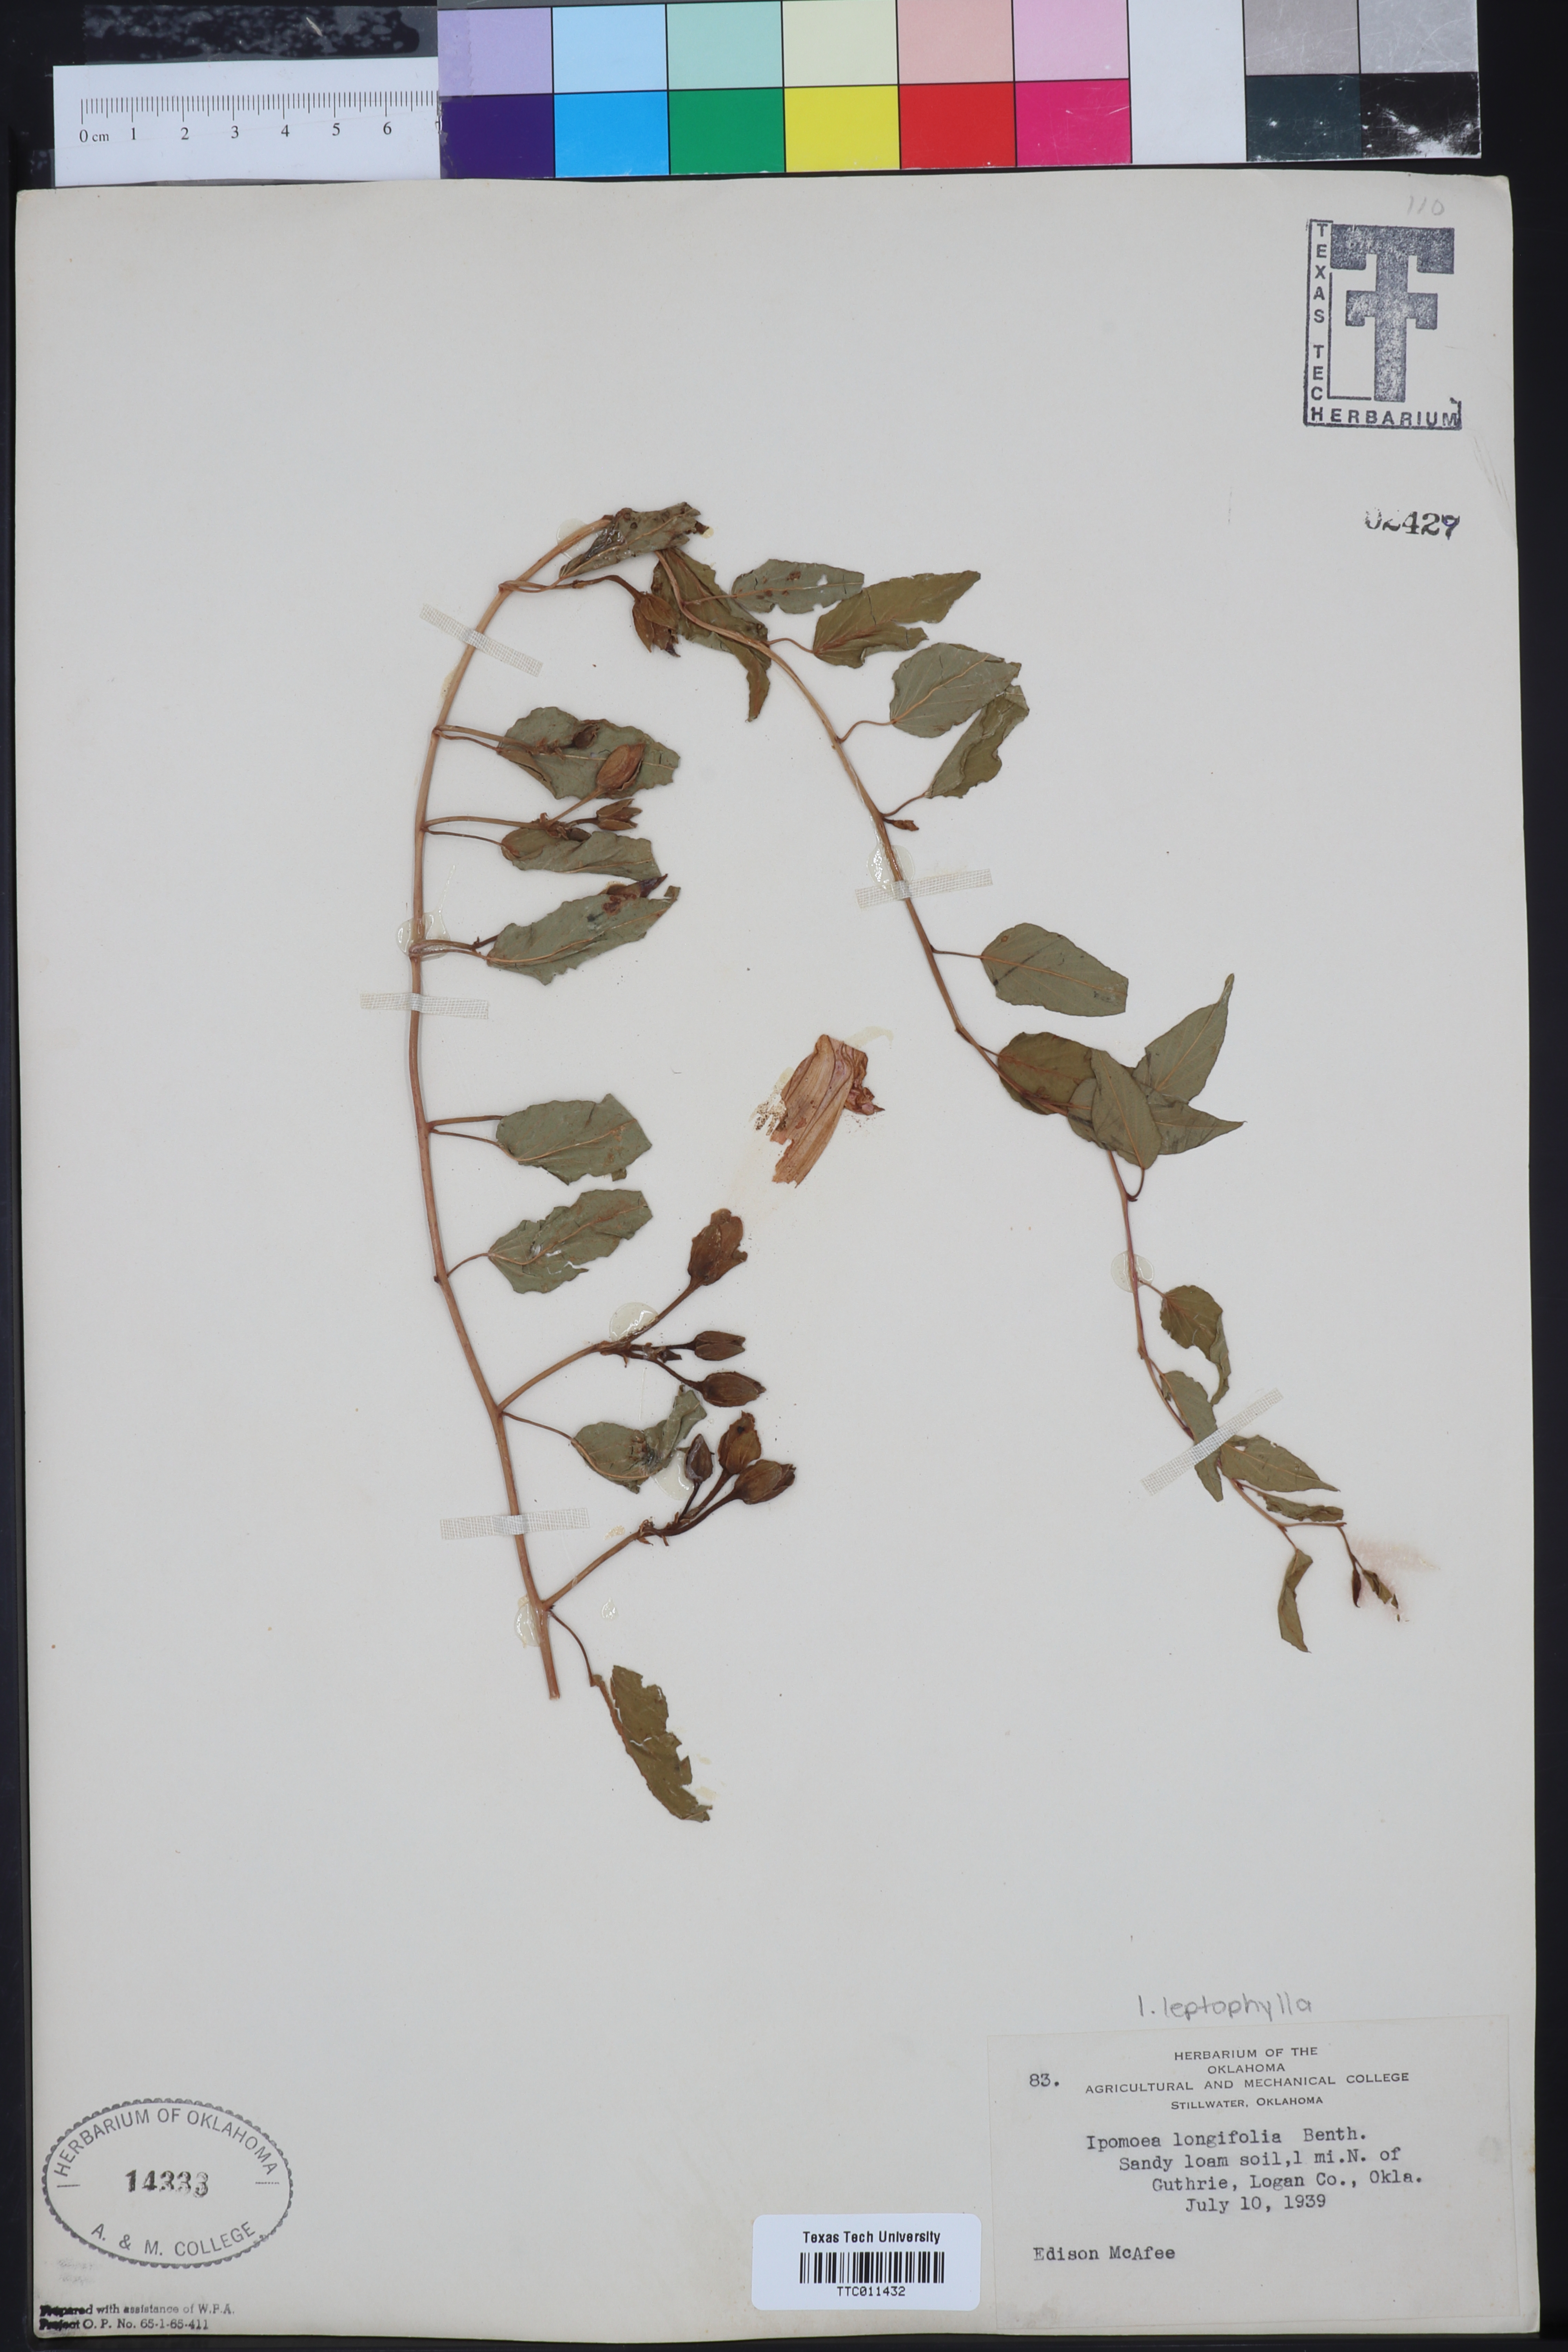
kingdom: Plantae
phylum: Tracheophyta
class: Magnoliopsida
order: Solanales
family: Convolvulaceae
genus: Ipomoea
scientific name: Ipomoea leptophylla
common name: Bush moonflower
